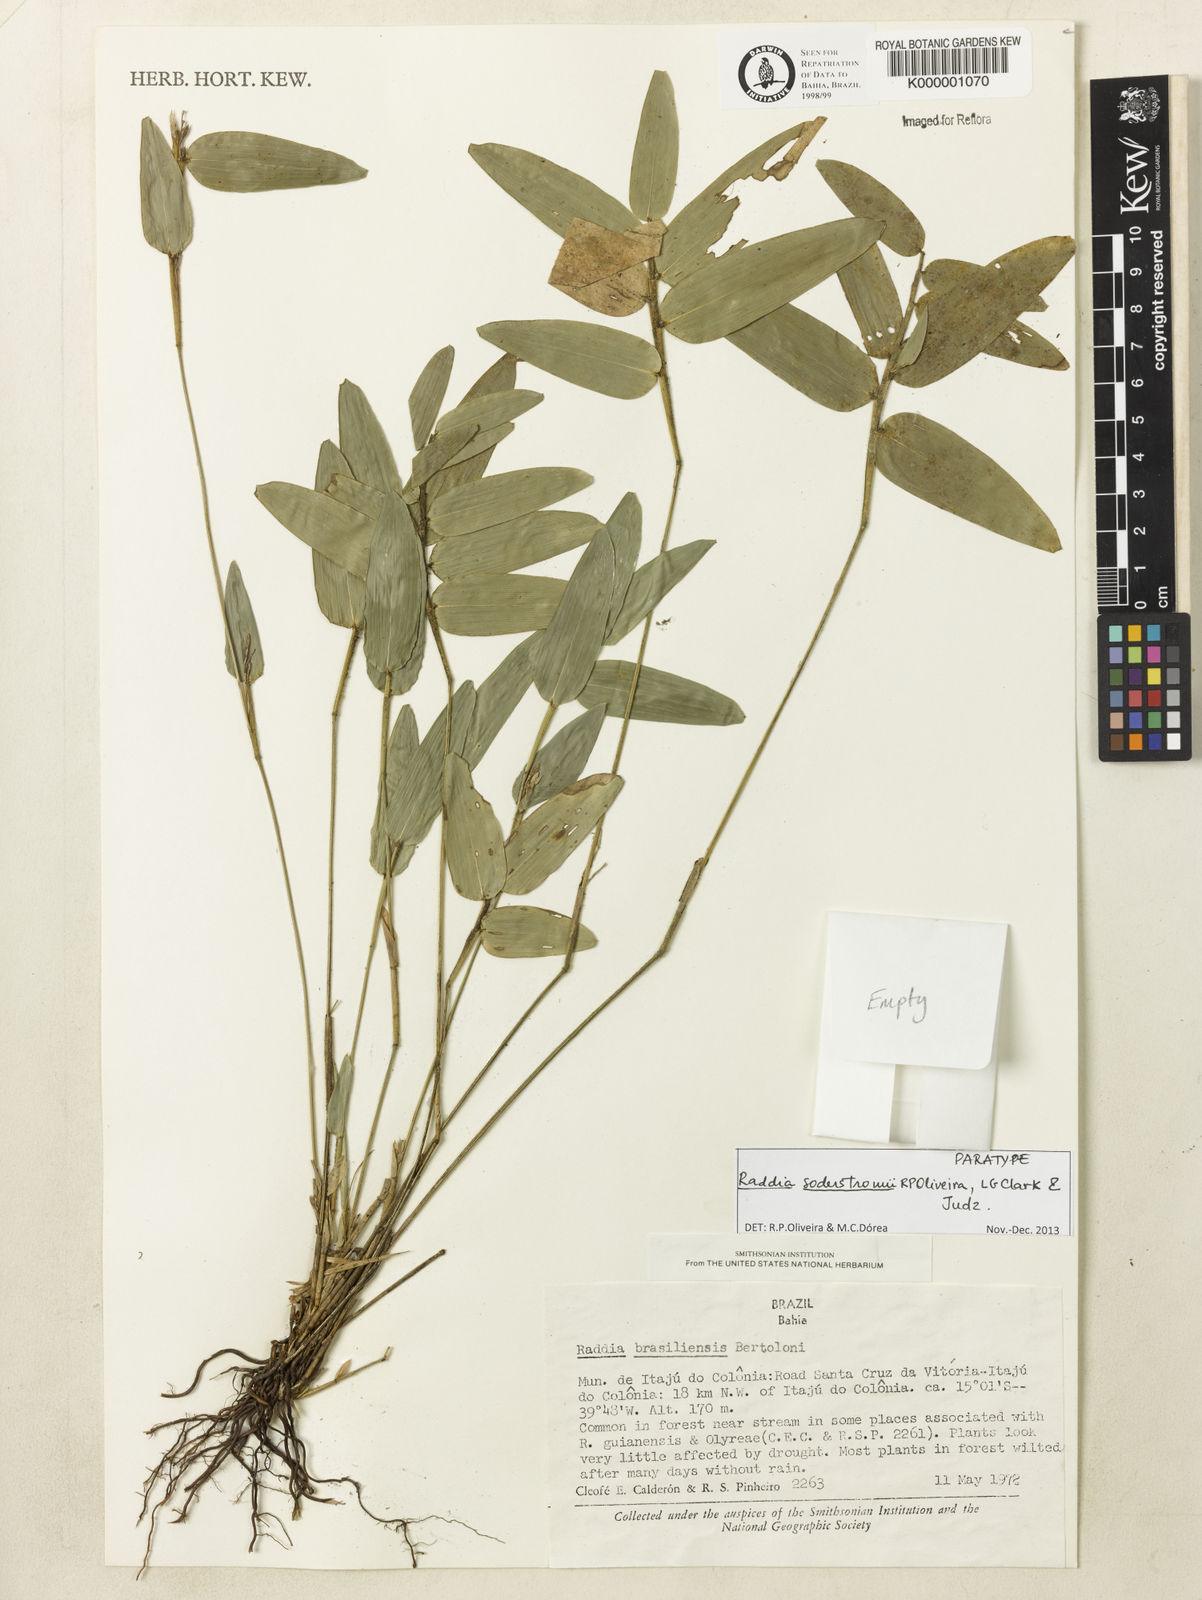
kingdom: Plantae
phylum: Tracheophyta
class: Liliopsida
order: Poales
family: Poaceae
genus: Raddia
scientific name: Raddia brasiliensis
